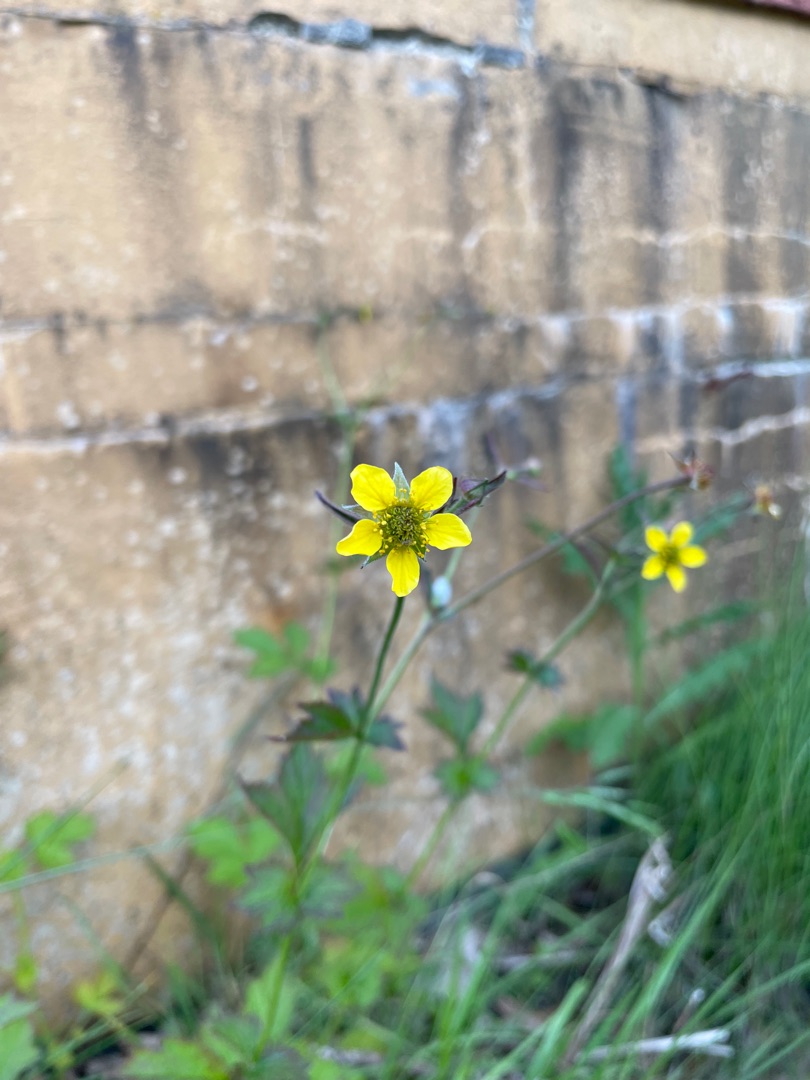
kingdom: Plantae
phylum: Tracheophyta
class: Magnoliopsida
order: Rosales
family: Rosaceae
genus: Geum
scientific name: Geum urbanum
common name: Feber-nellikerod
